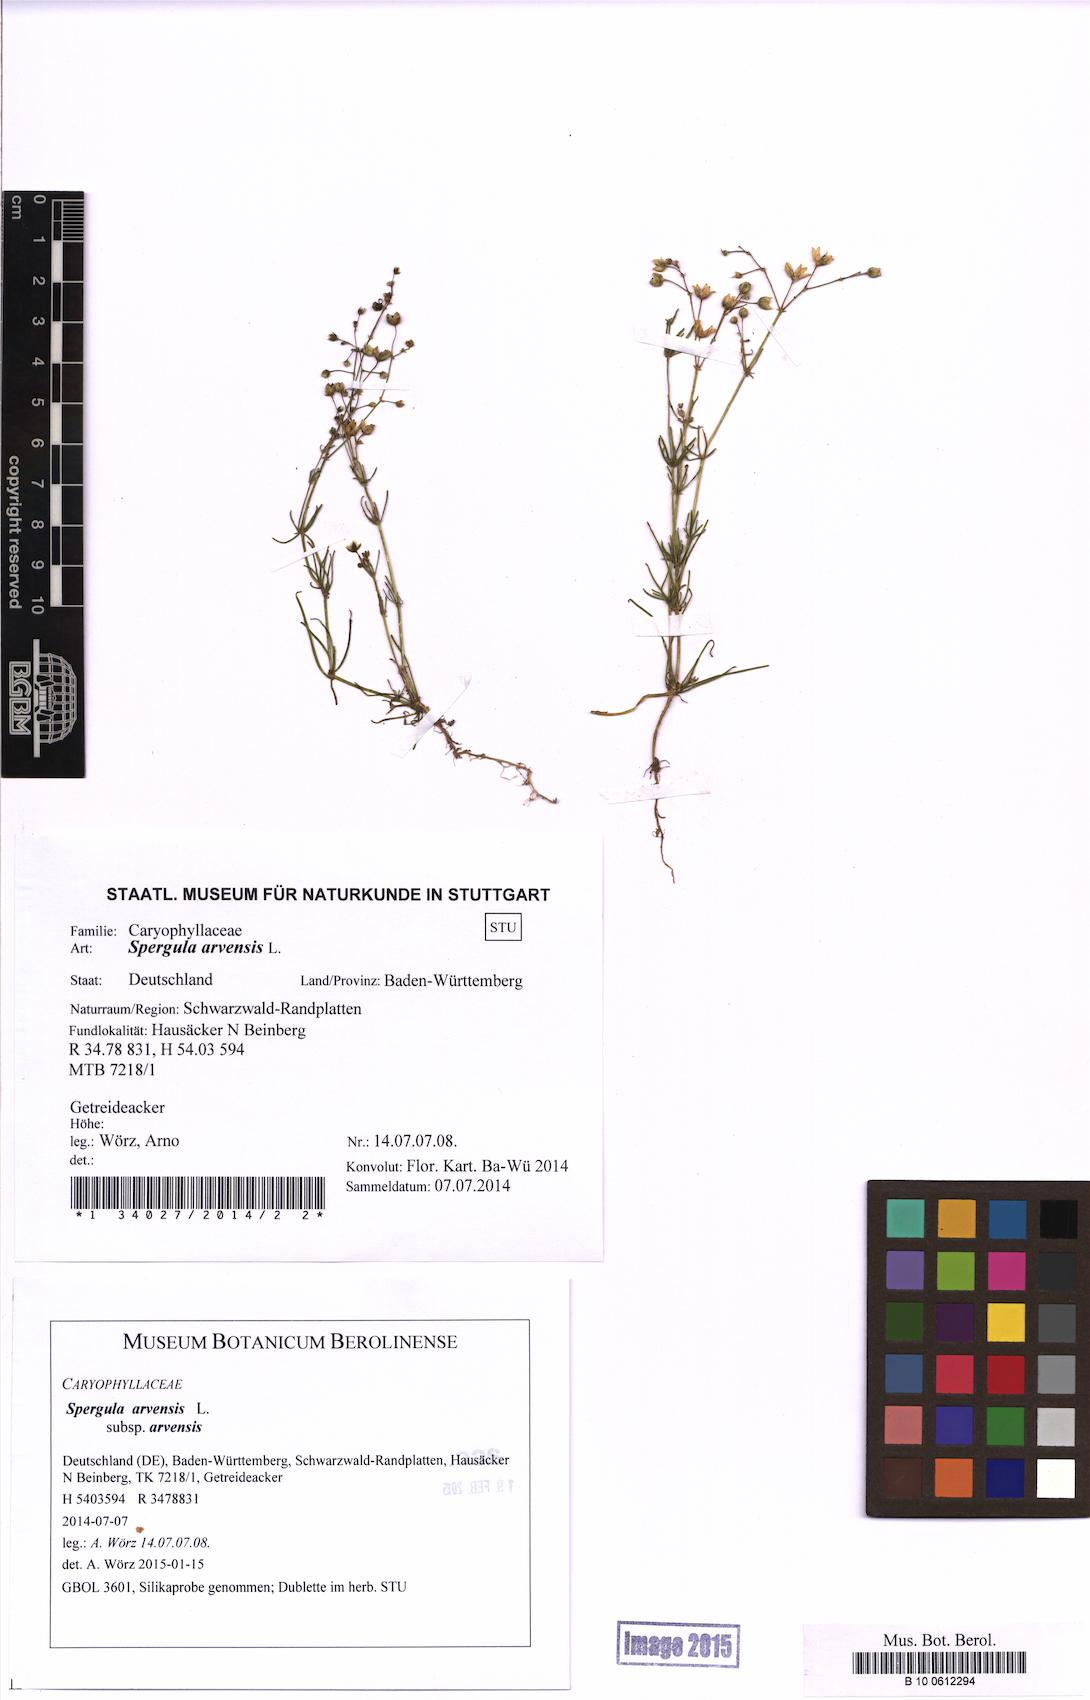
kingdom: Plantae
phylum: Tracheophyta
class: Magnoliopsida
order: Caryophyllales
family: Caryophyllaceae
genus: Spergula
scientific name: Spergula arvensis
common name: Corn spurrey
